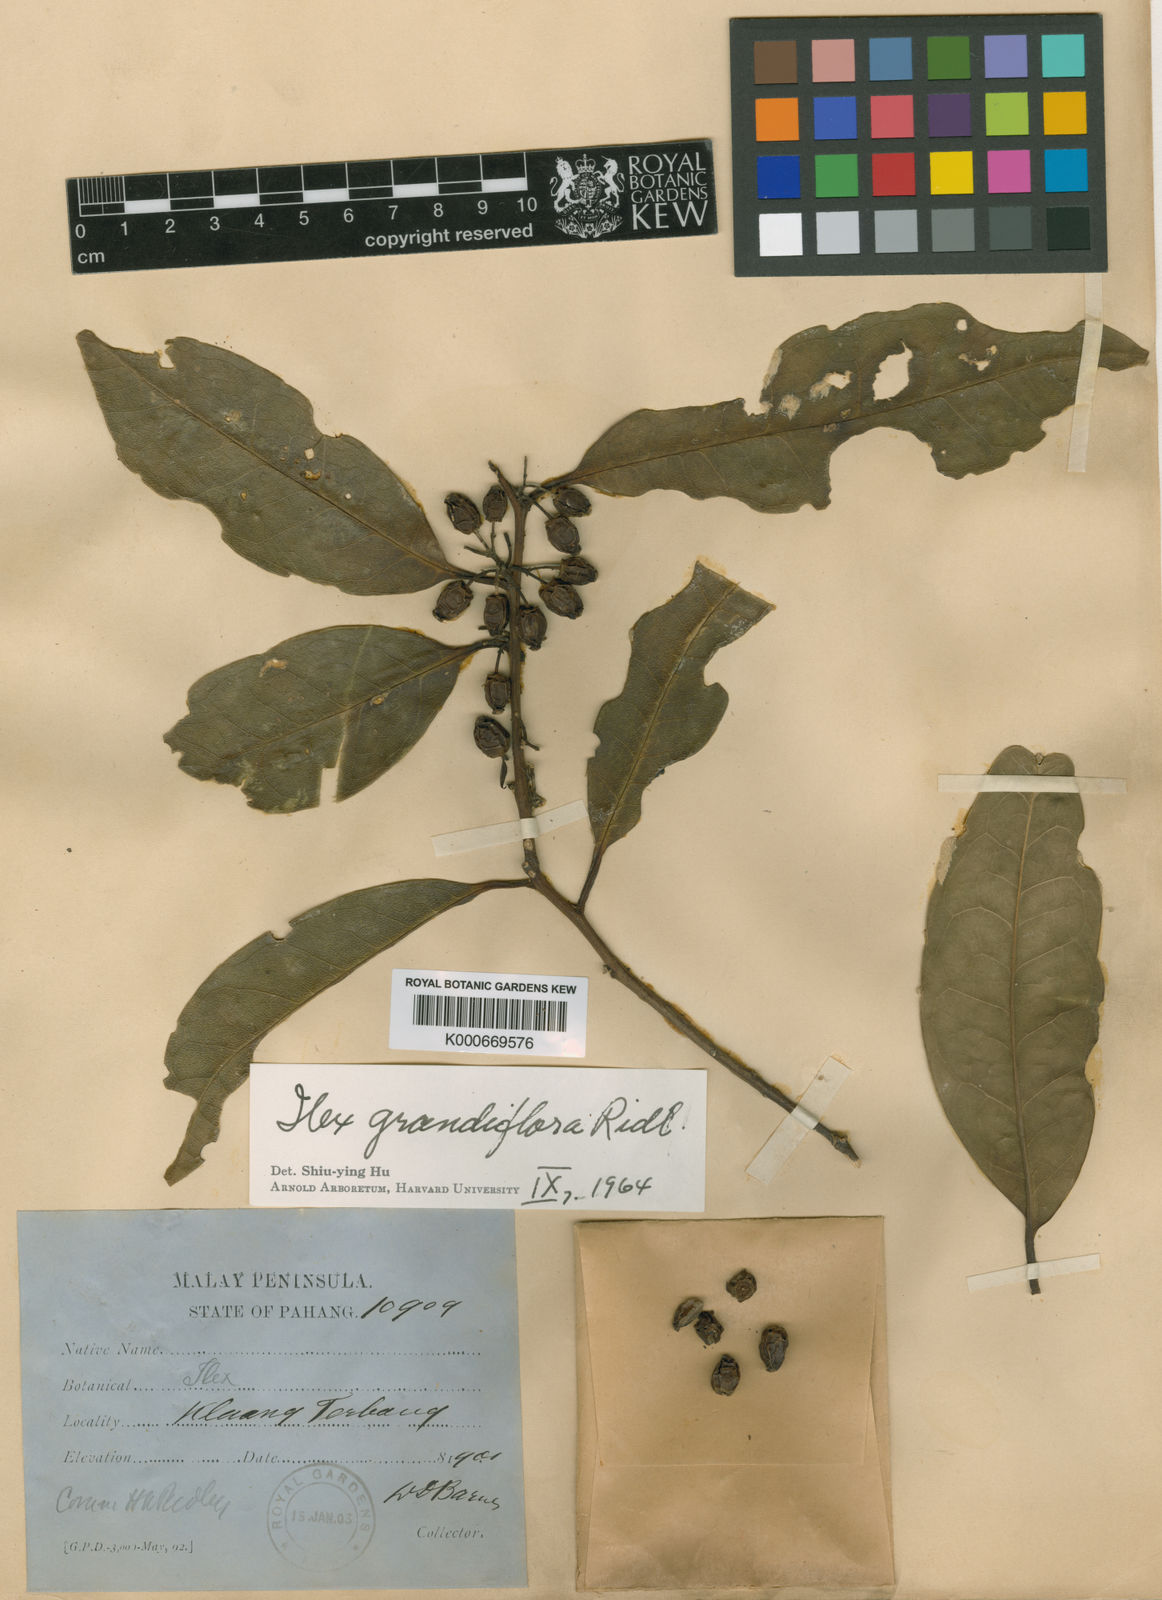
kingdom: Plantae
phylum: Tracheophyta
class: Magnoliopsida
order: Aquifoliales
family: Aquifoliaceae
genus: Ilex
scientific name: Ilex grandiflora
